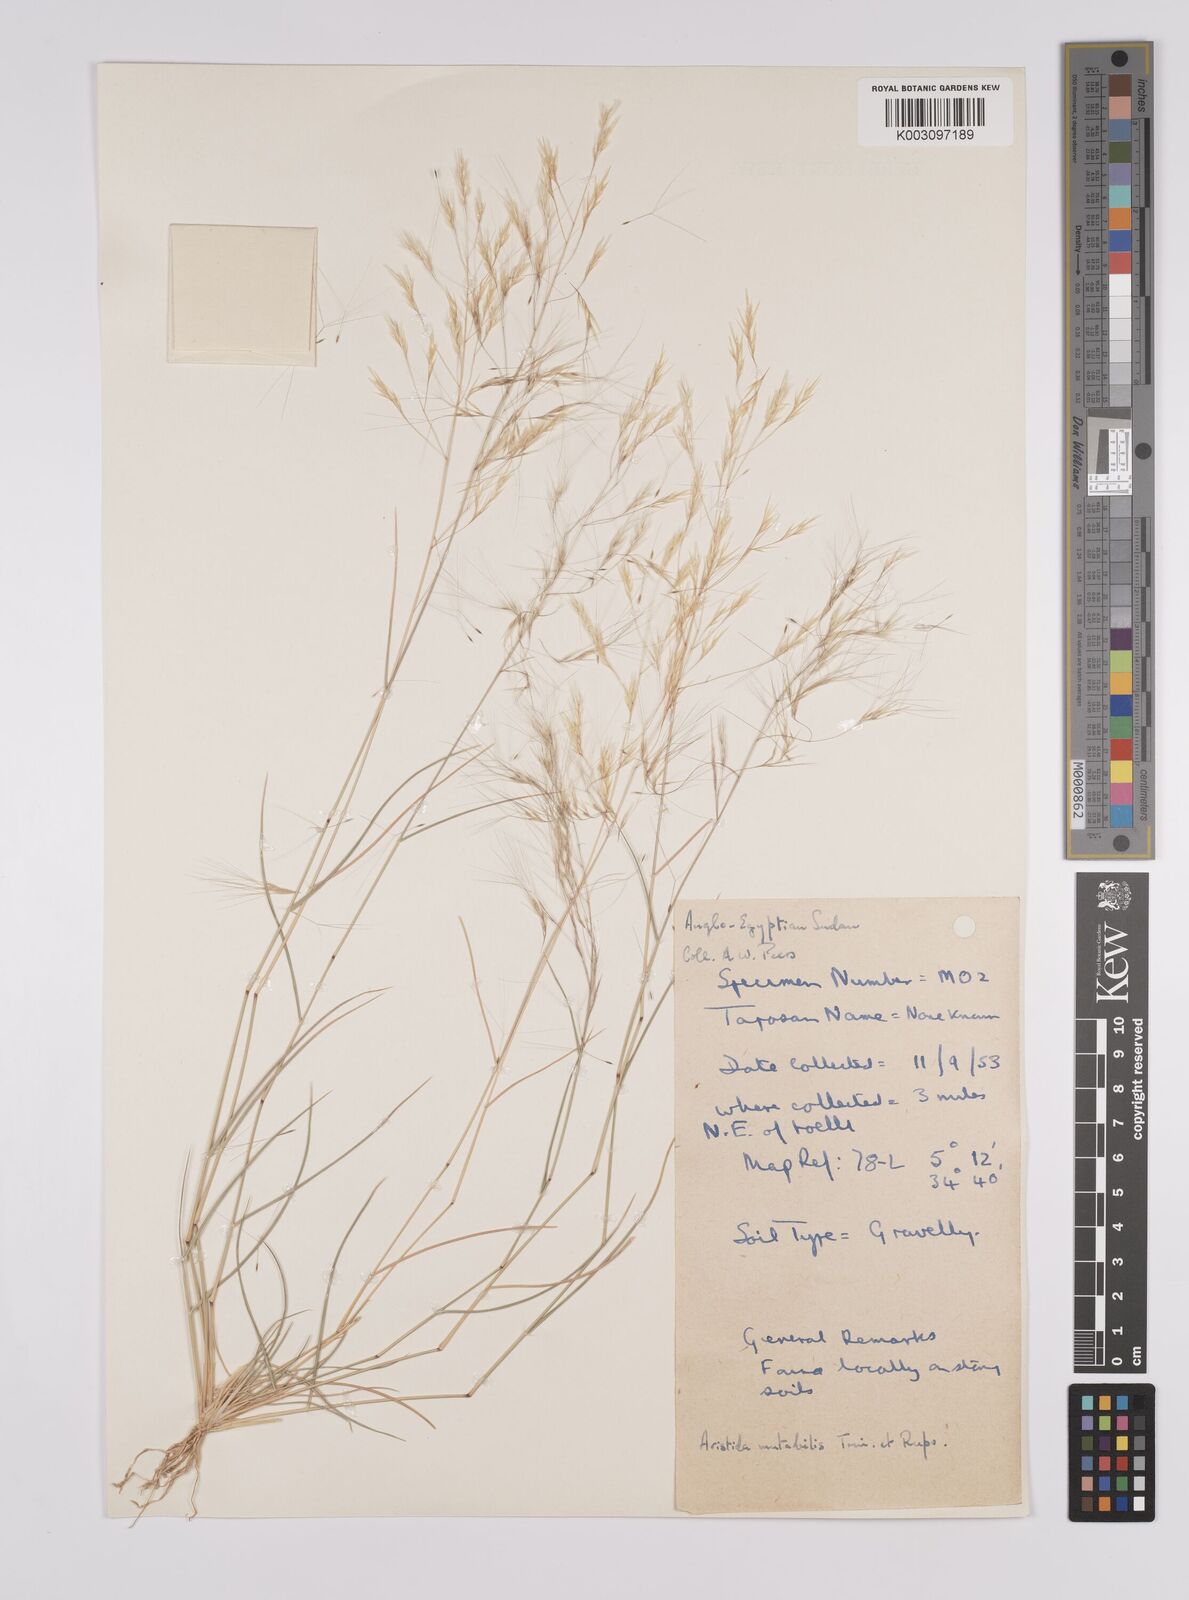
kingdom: Plantae
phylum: Tracheophyta
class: Liliopsida
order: Poales
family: Poaceae
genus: Aristida
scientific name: Aristida mutabilis
